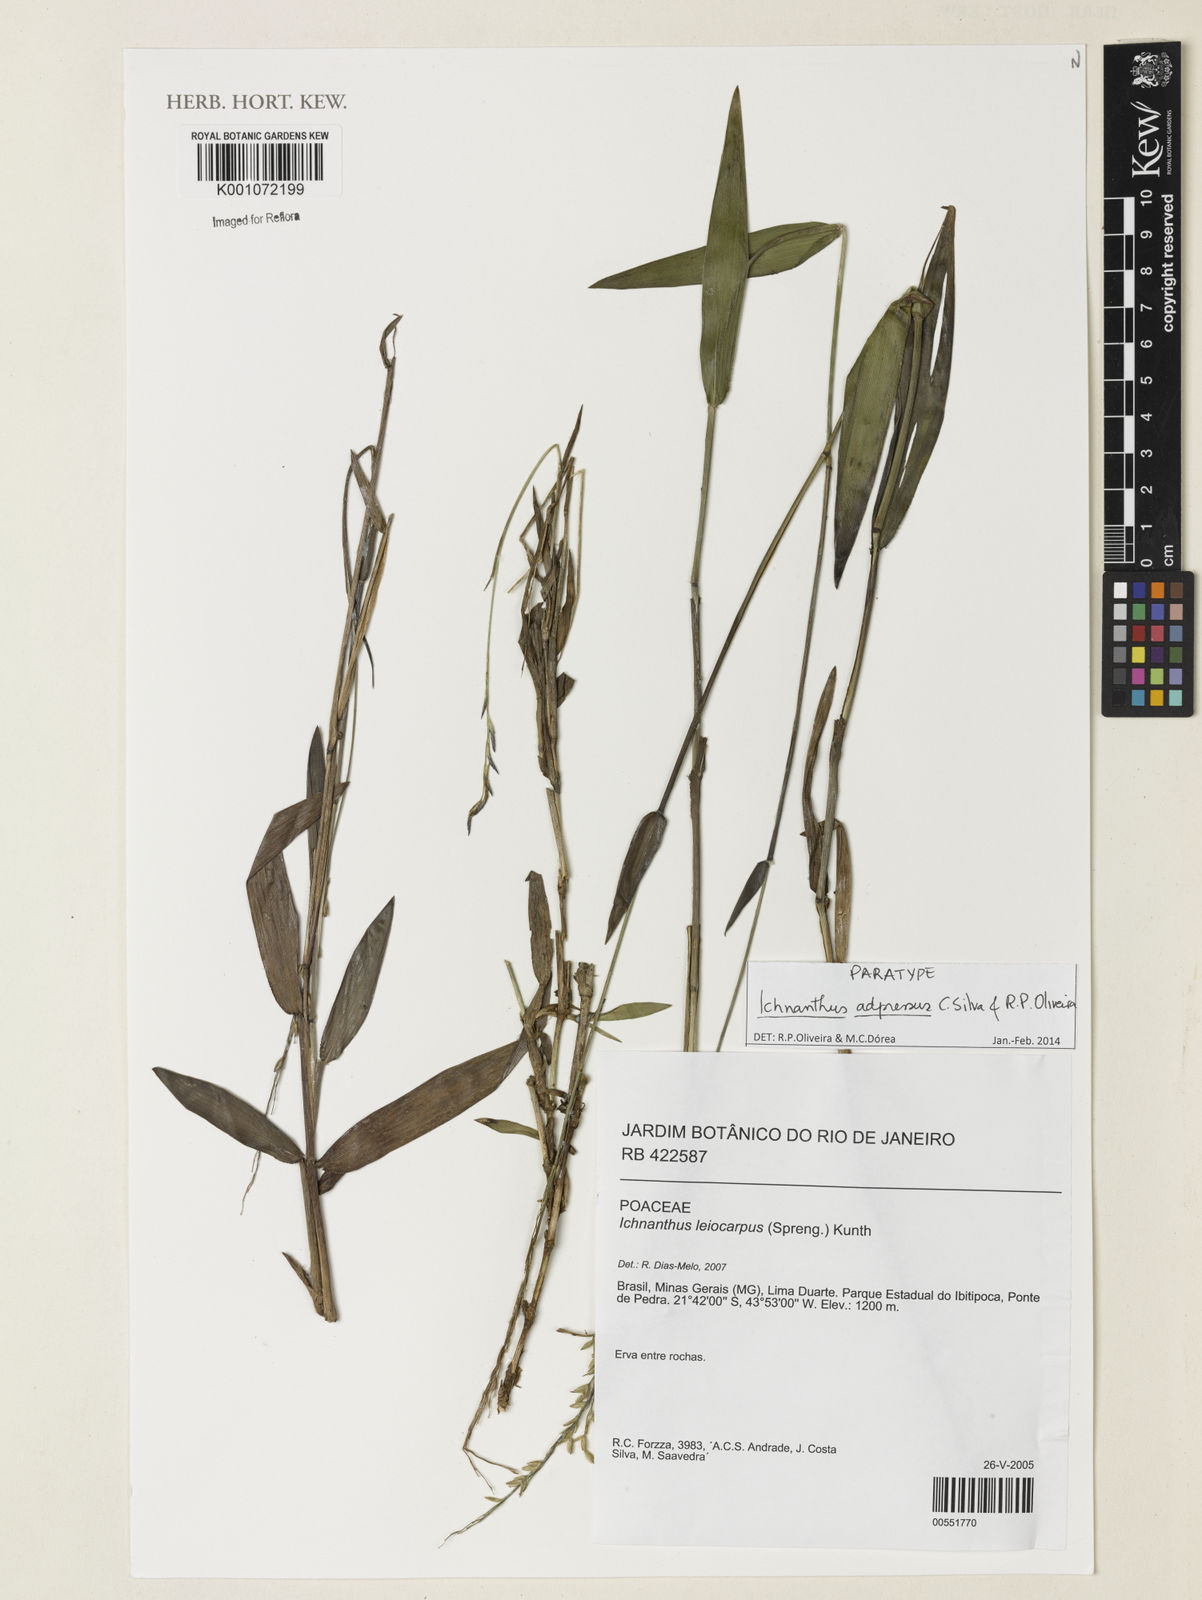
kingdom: Plantae
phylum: Tracheophyta
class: Liliopsida
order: Poales
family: Poaceae
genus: Ichnanthus
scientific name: Ichnanthus adpressus
